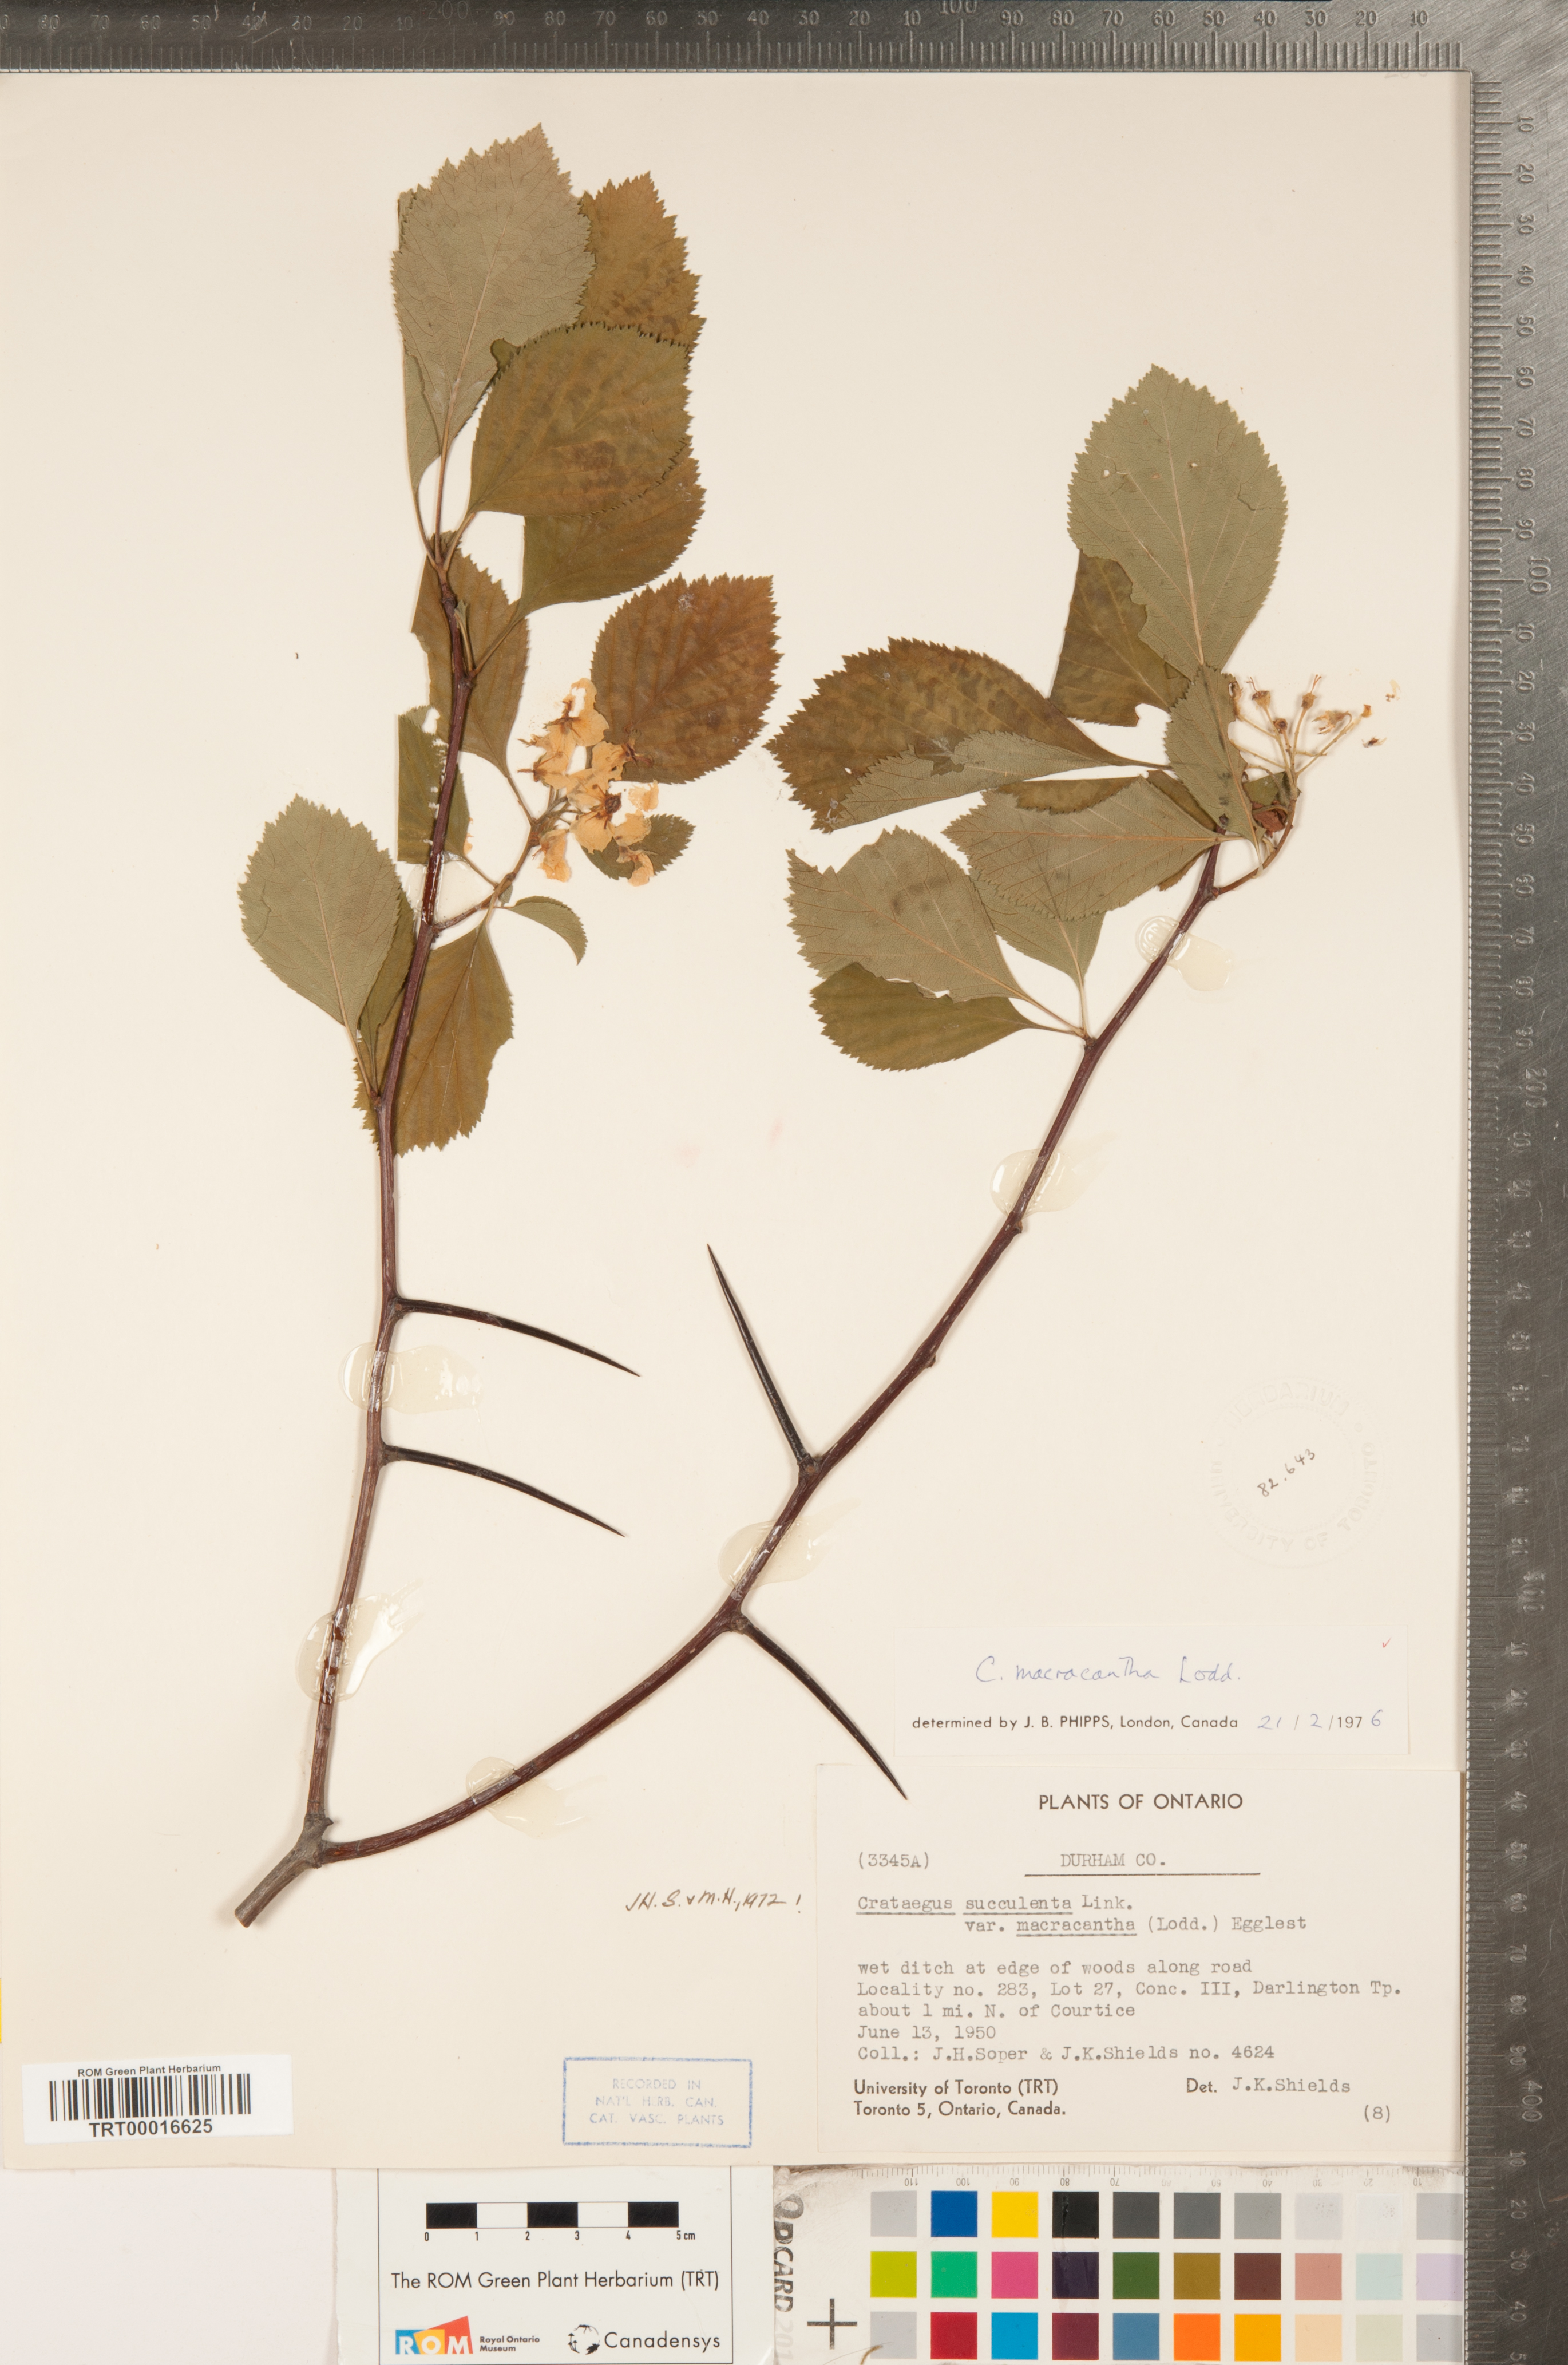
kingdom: Plantae
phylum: Tracheophyta
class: Magnoliopsida
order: Rosales
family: Rosaceae
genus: Crataegus
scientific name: Crataegus macracantha
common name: Large-thorn hawthorn
